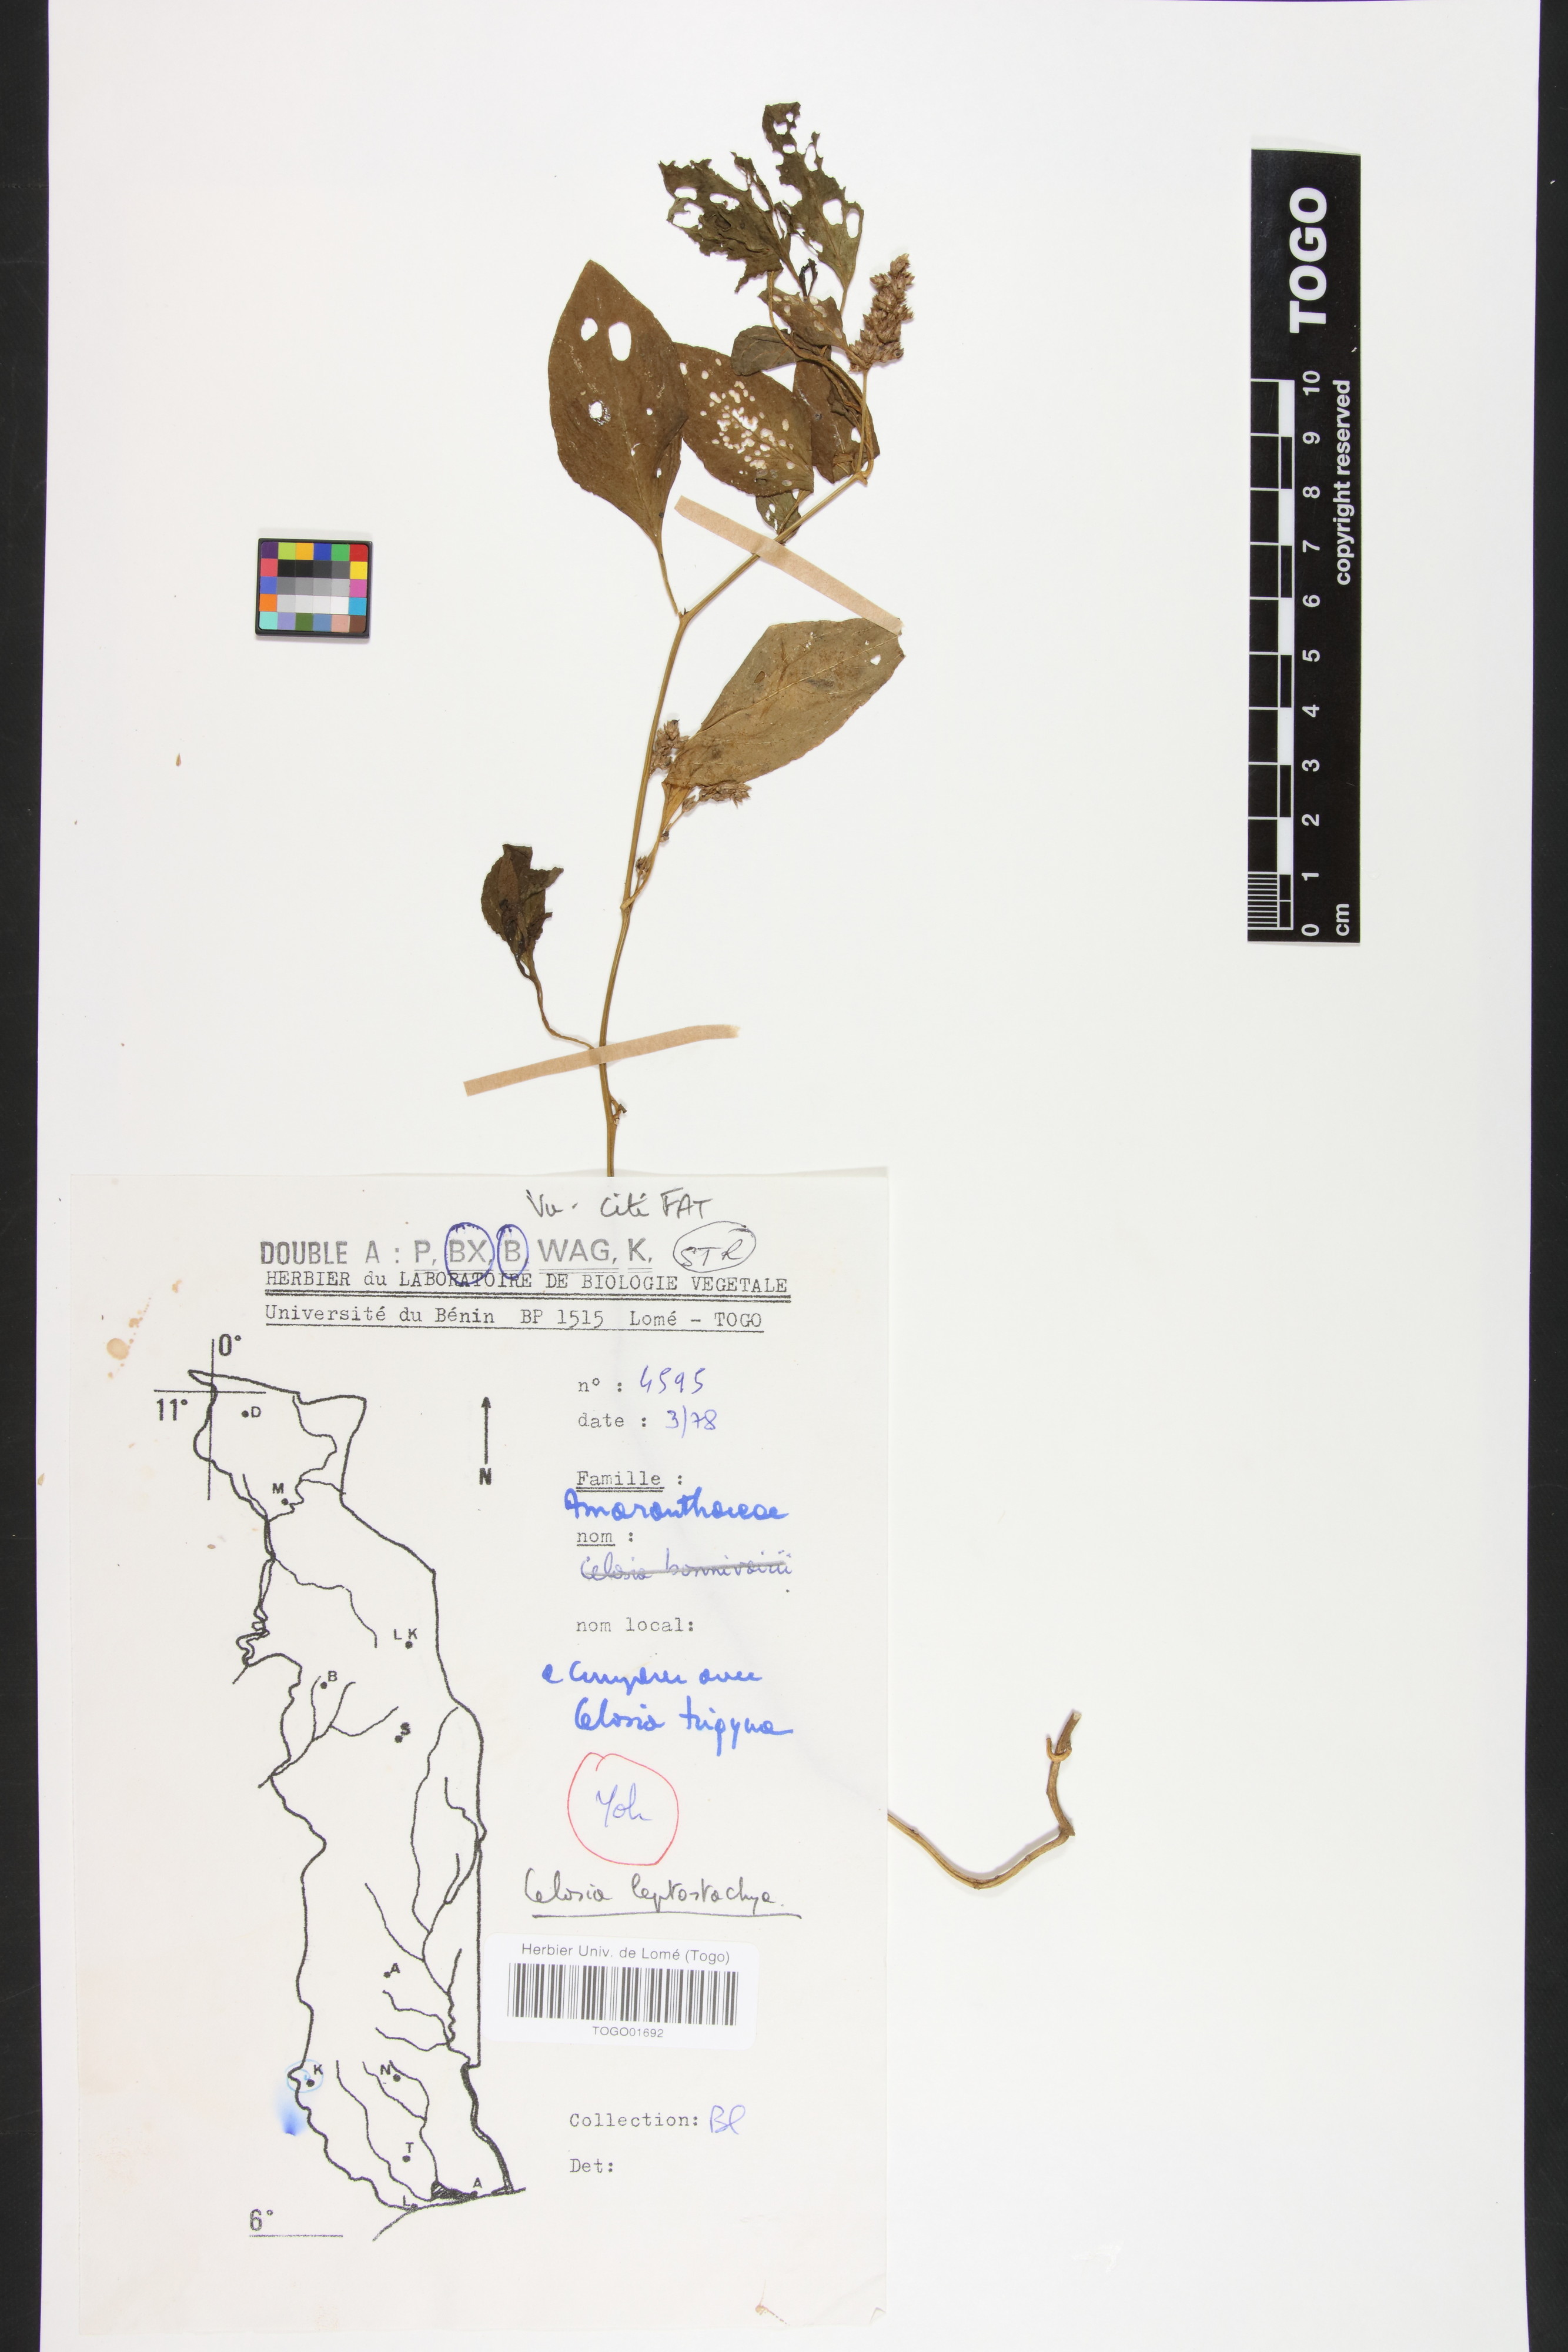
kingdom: Plantae
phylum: Tracheophyta
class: Magnoliopsida
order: Caryophyllales
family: Amaranthaceae
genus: Celosia
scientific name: Celosia leptostachya
